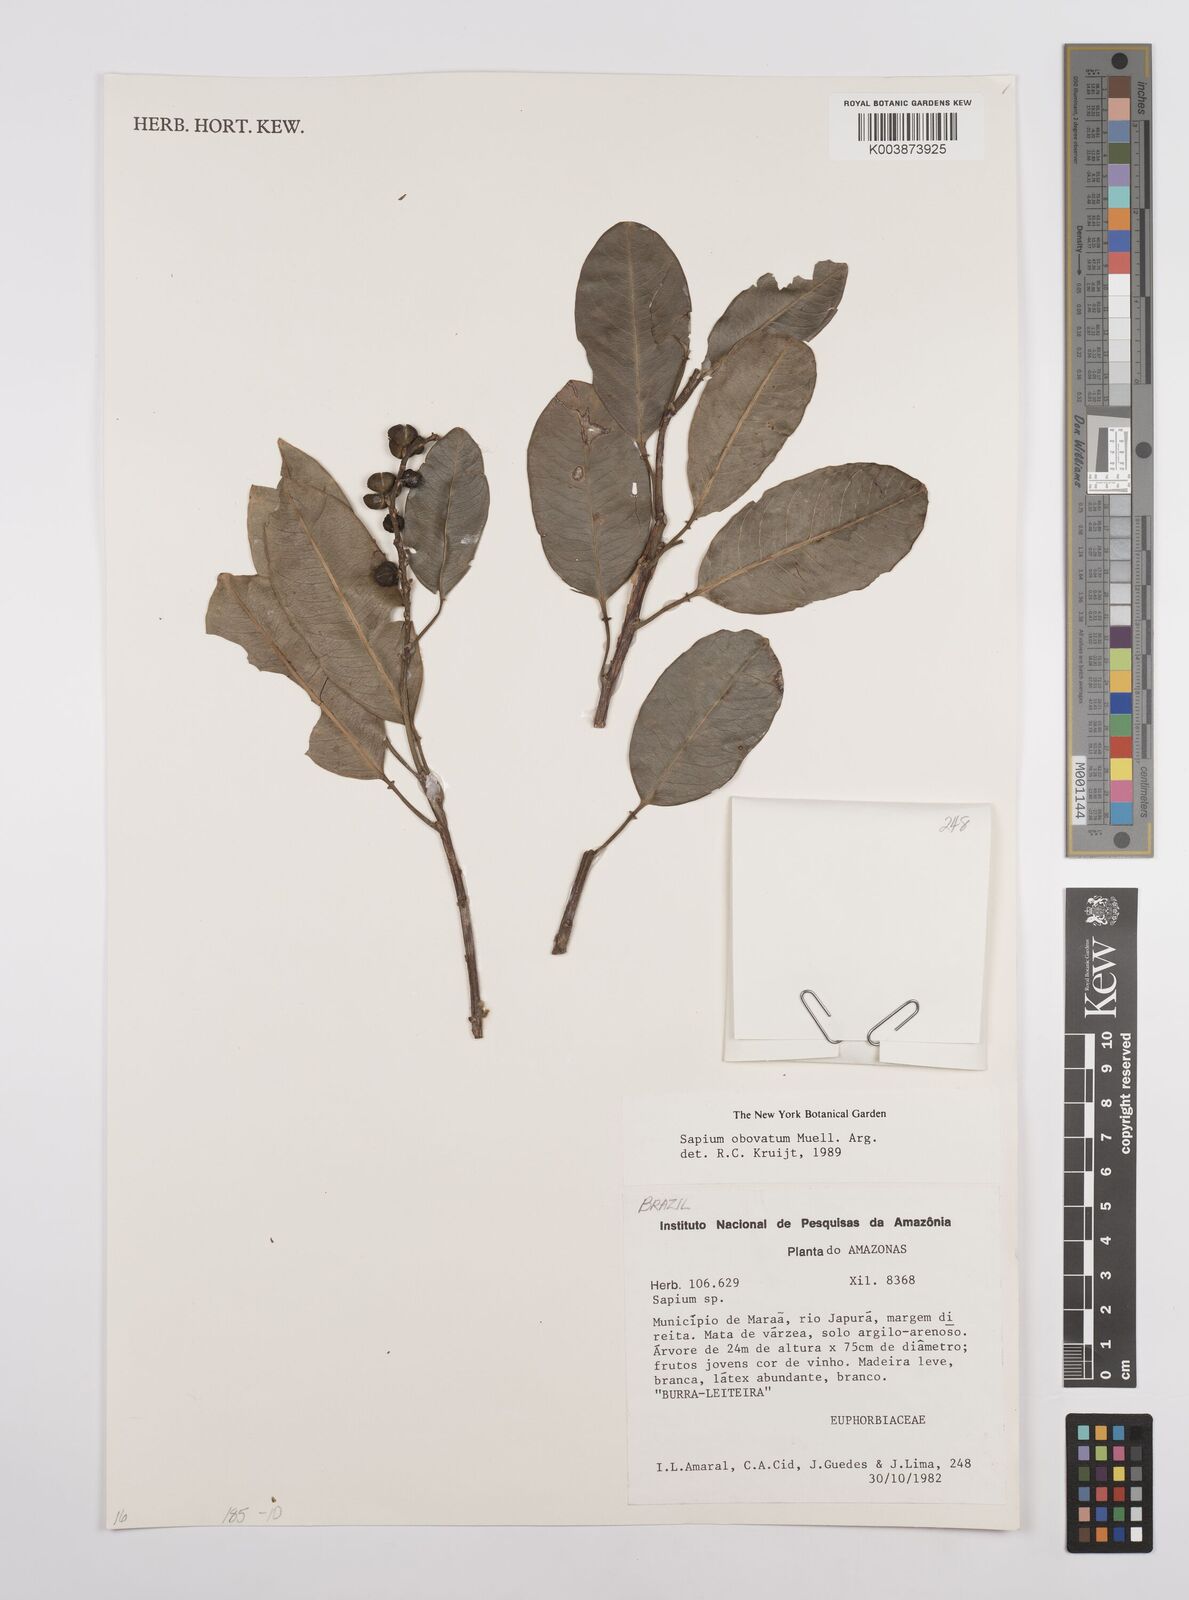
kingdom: Plantae
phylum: Tracheophyta
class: Magnoliopsida
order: Malpighiales
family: Euphorbiaceae
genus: Sapium
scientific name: Sapium obovatum
